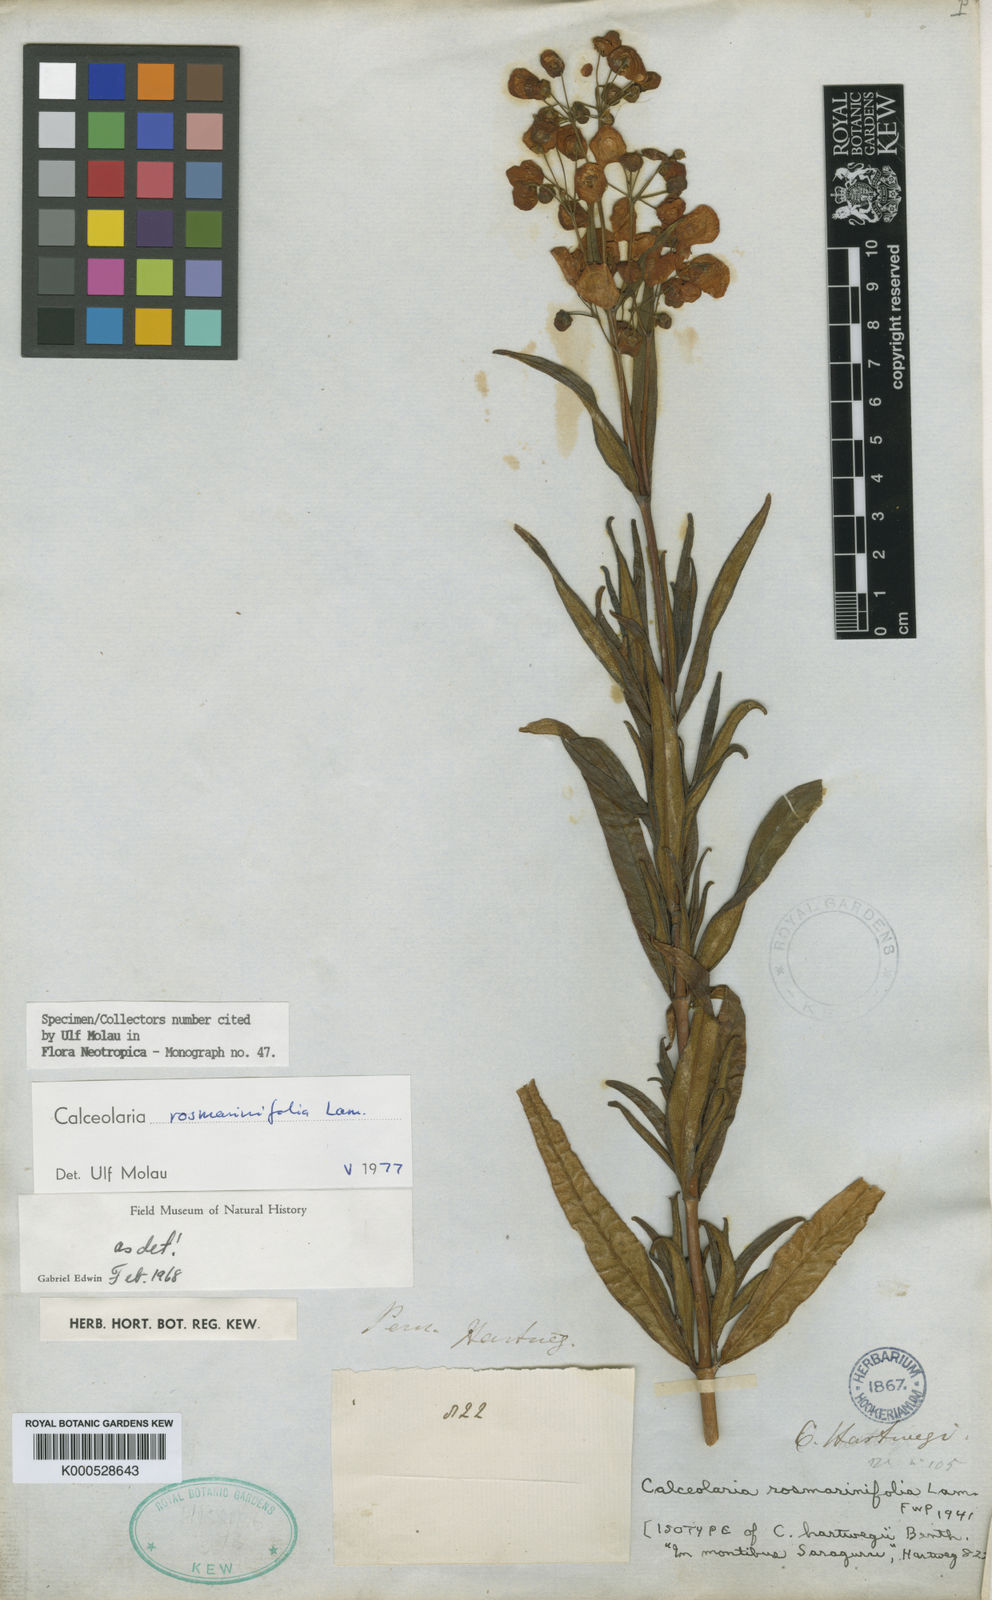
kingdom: Plantae
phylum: Tracheophyta
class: Magnoliopsida
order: Lamiales
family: Calceolariaceae
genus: Calceolaria
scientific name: Calceolaria rosmarinifolia
